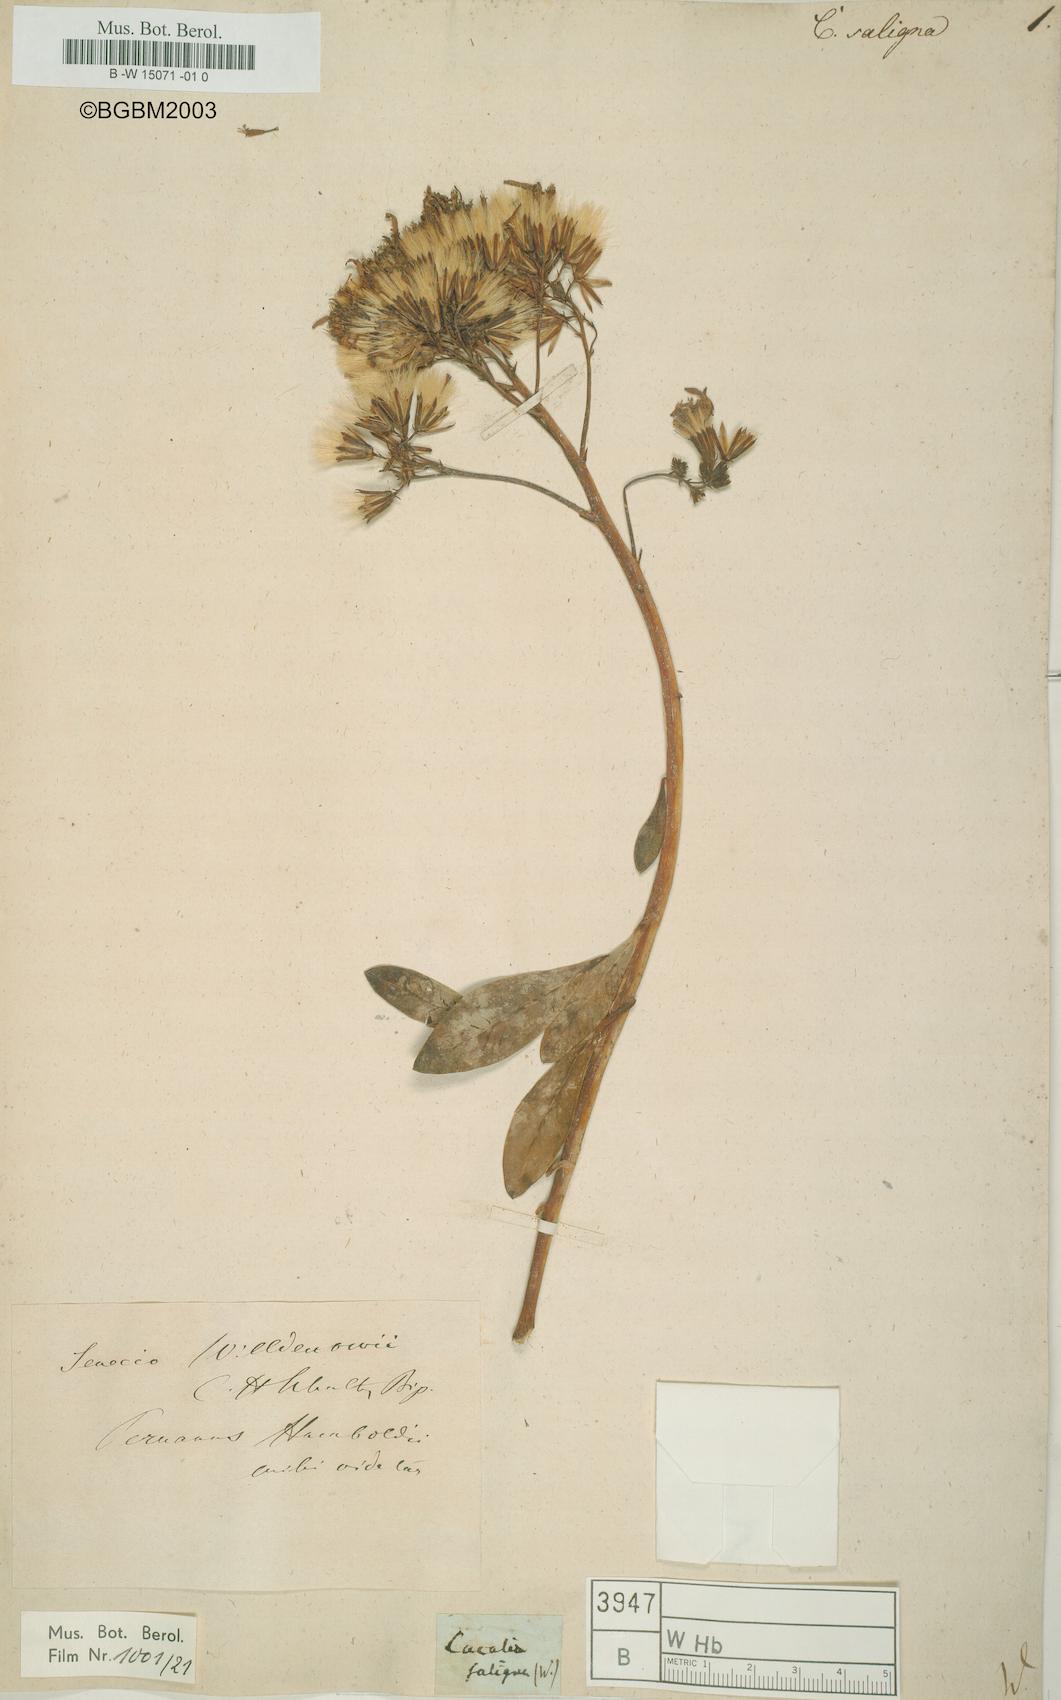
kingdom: Plantae
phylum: Tracheophyta
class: Magnoliopsida
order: Asterales
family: Asteraceae
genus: Acilepis
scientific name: Acilepis saligna
